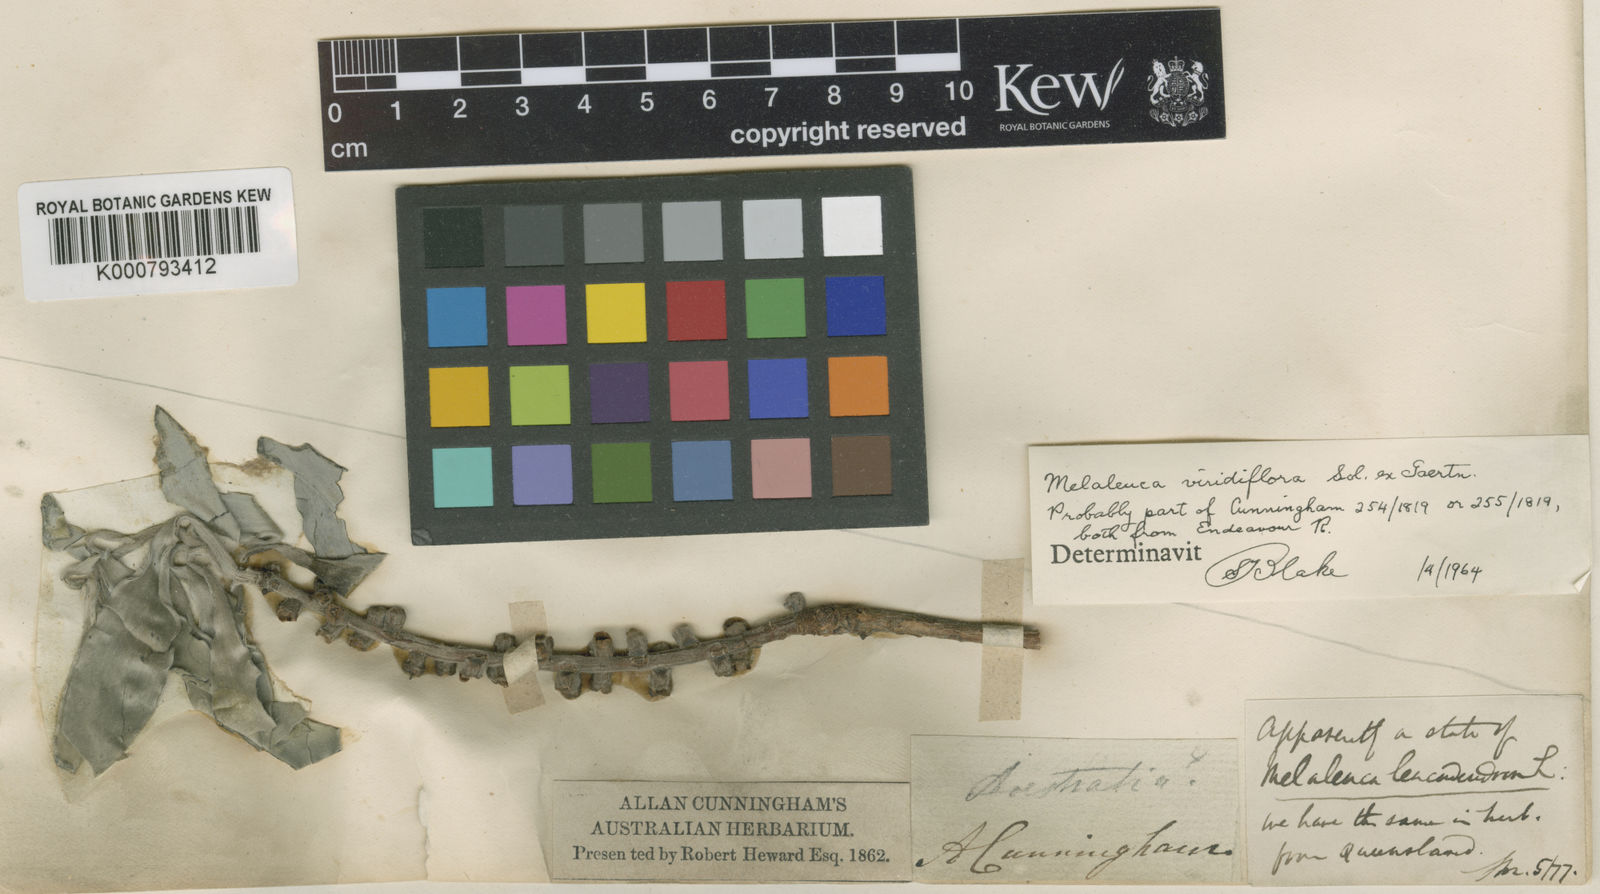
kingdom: Plantae
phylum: Tracheophyta
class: Magnoliopsida
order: Myrtales
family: Myrtaceae
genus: Melaleuca
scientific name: Melaleuca viridiflora
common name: Brown-leaved paperbark
